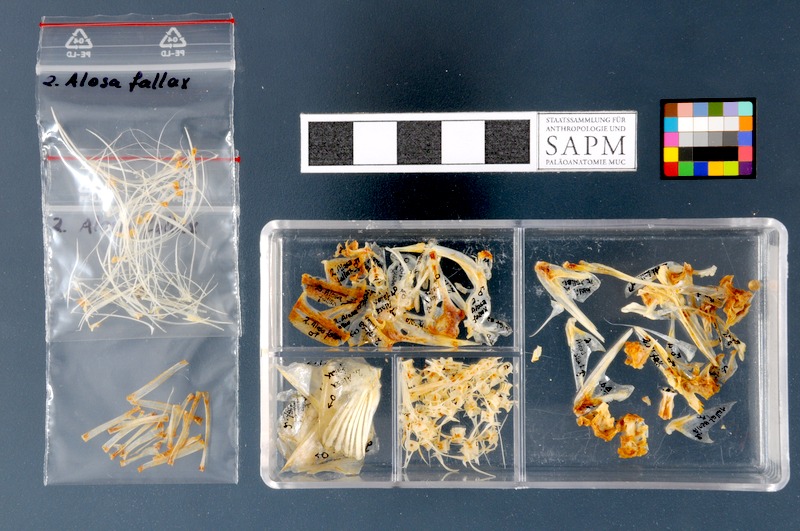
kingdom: Animalia
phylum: Chordata
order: Clupeiformes
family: Clupeidae
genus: Alosa
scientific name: Alosa fallax
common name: Twaite shad
